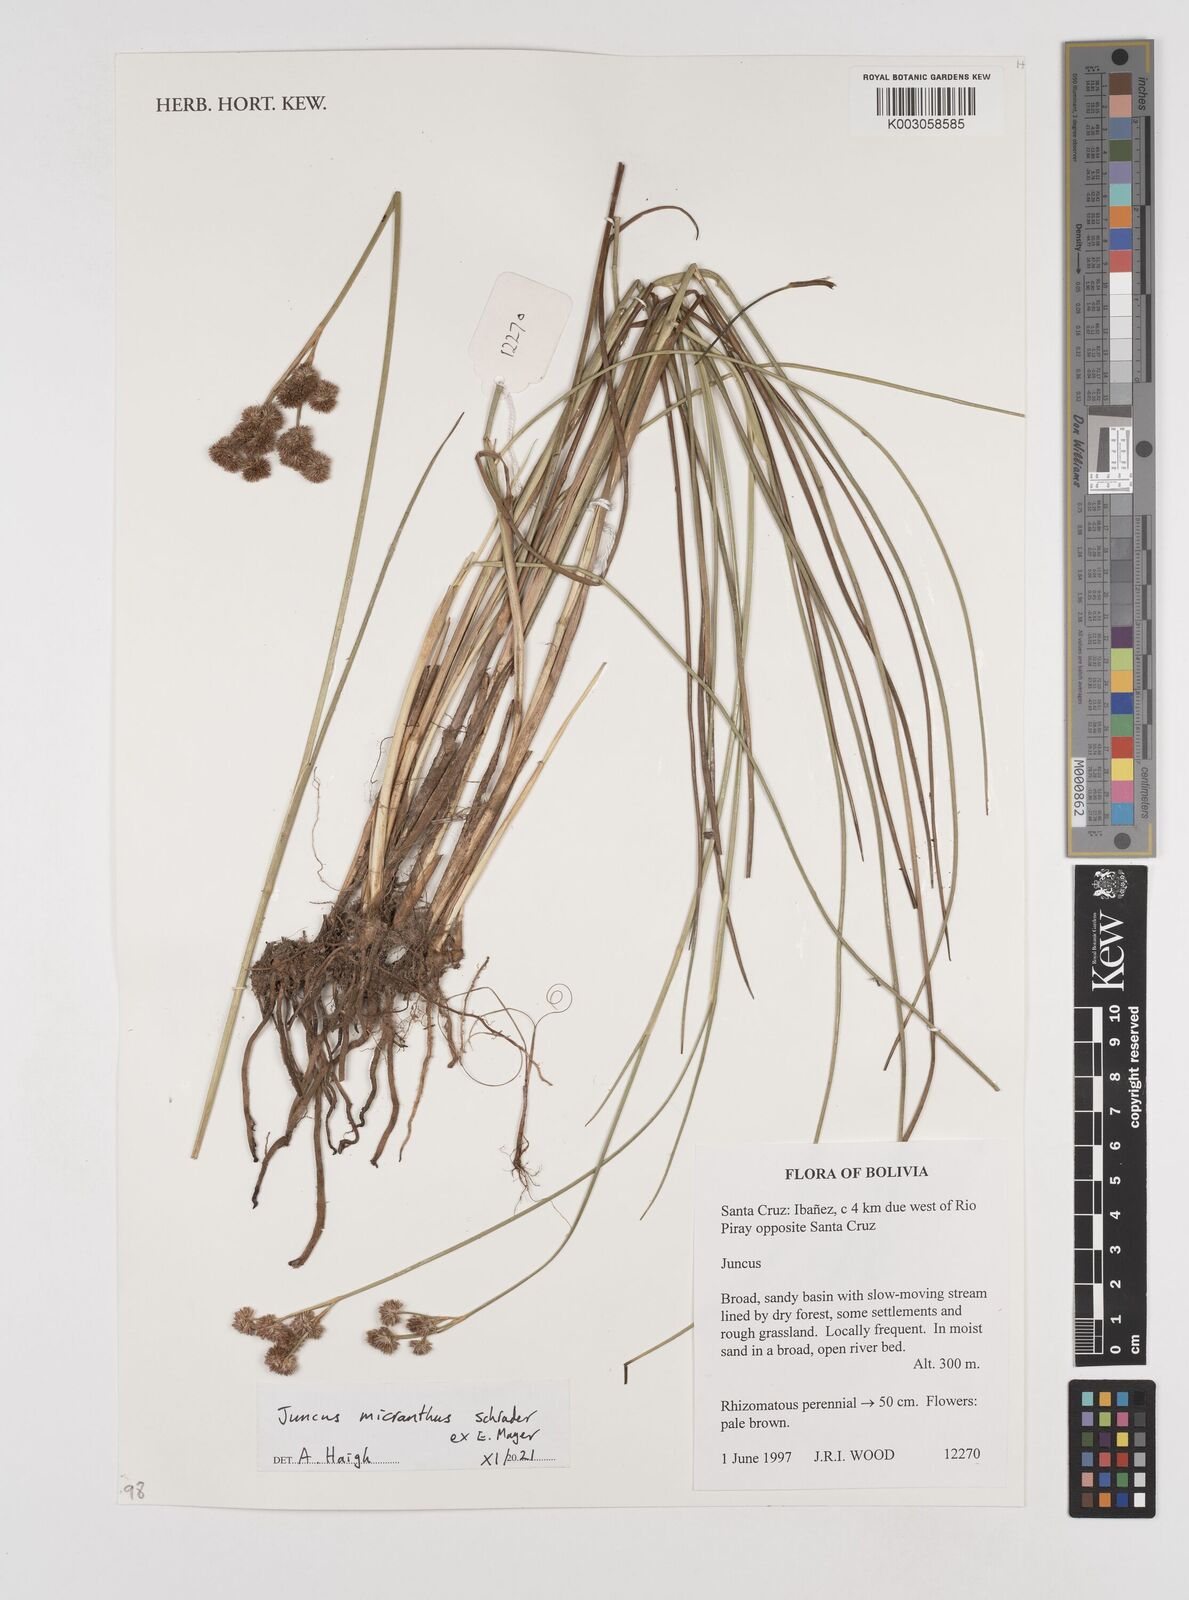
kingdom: Plantae
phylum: Tracheophyta
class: Liliopsida
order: Poales
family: Juncaceae
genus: Juncus
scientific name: Juncus micranthus
